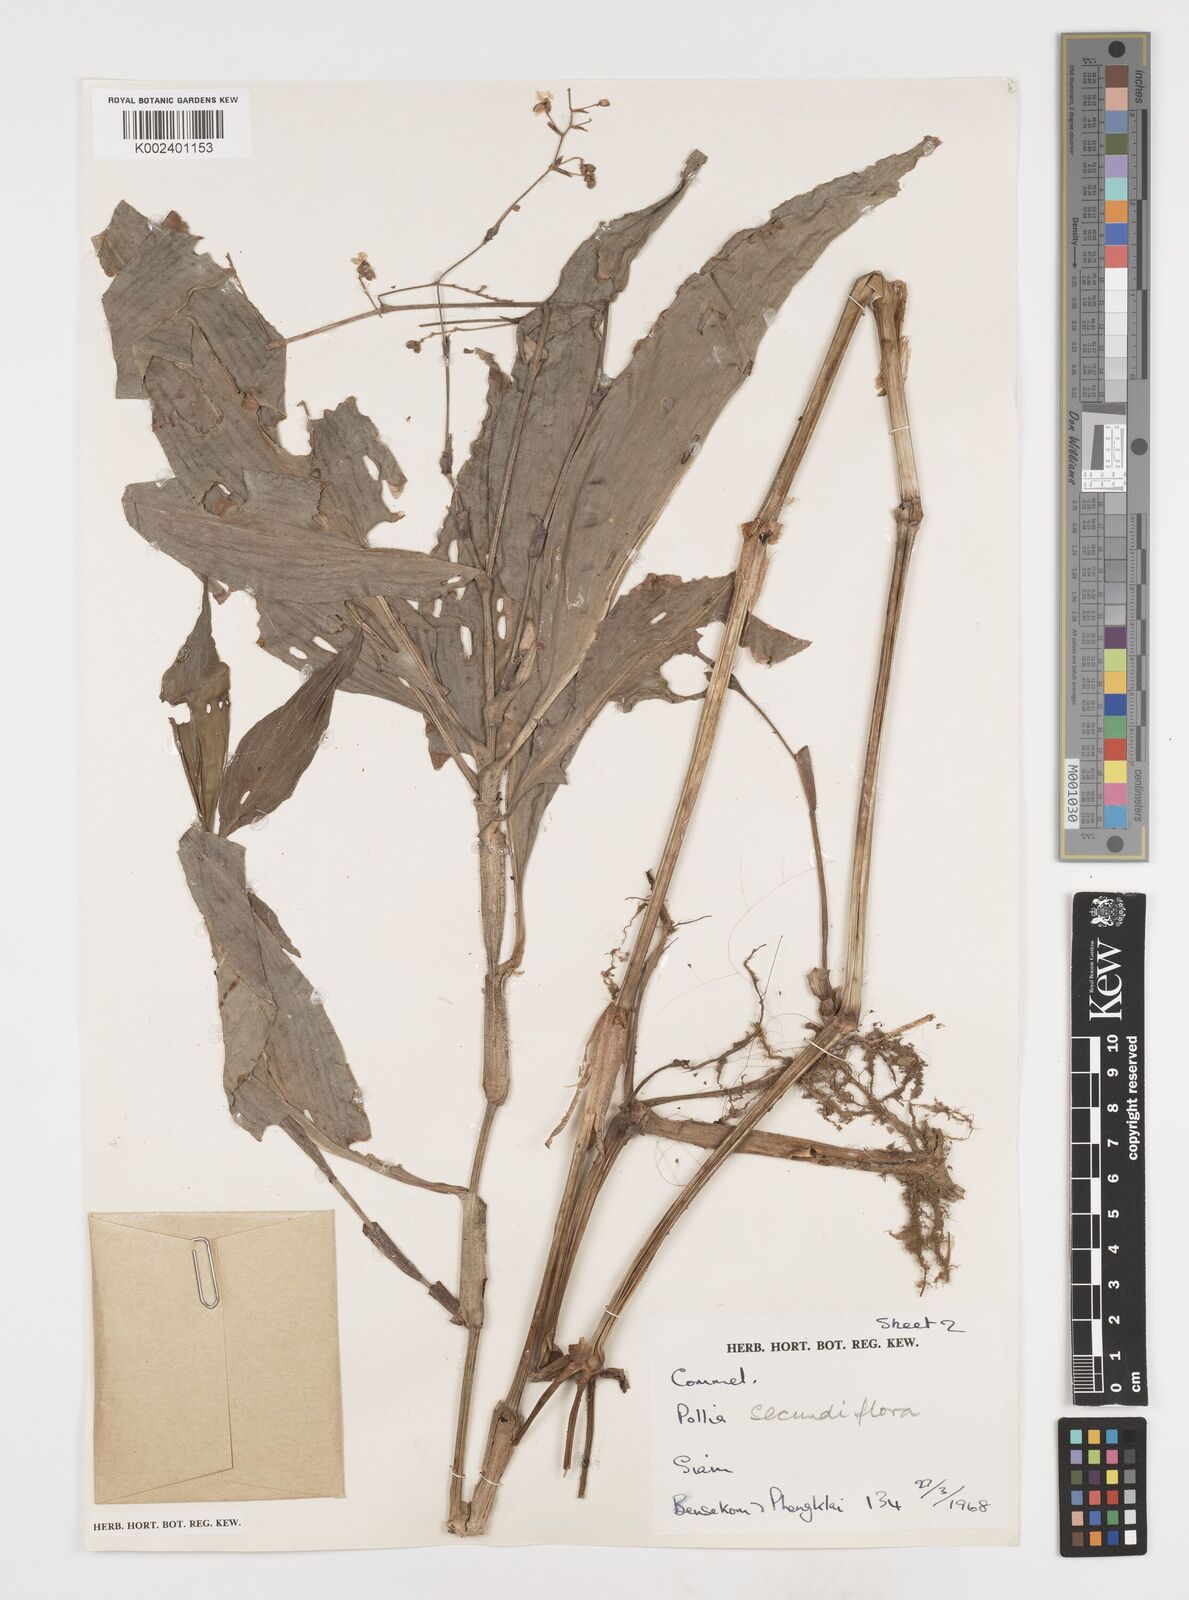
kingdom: Plantae
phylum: Tracheophyta
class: Liliopsida
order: Commelinales
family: Commelinaceae
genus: Pollia
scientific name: Pollia secundiflora
